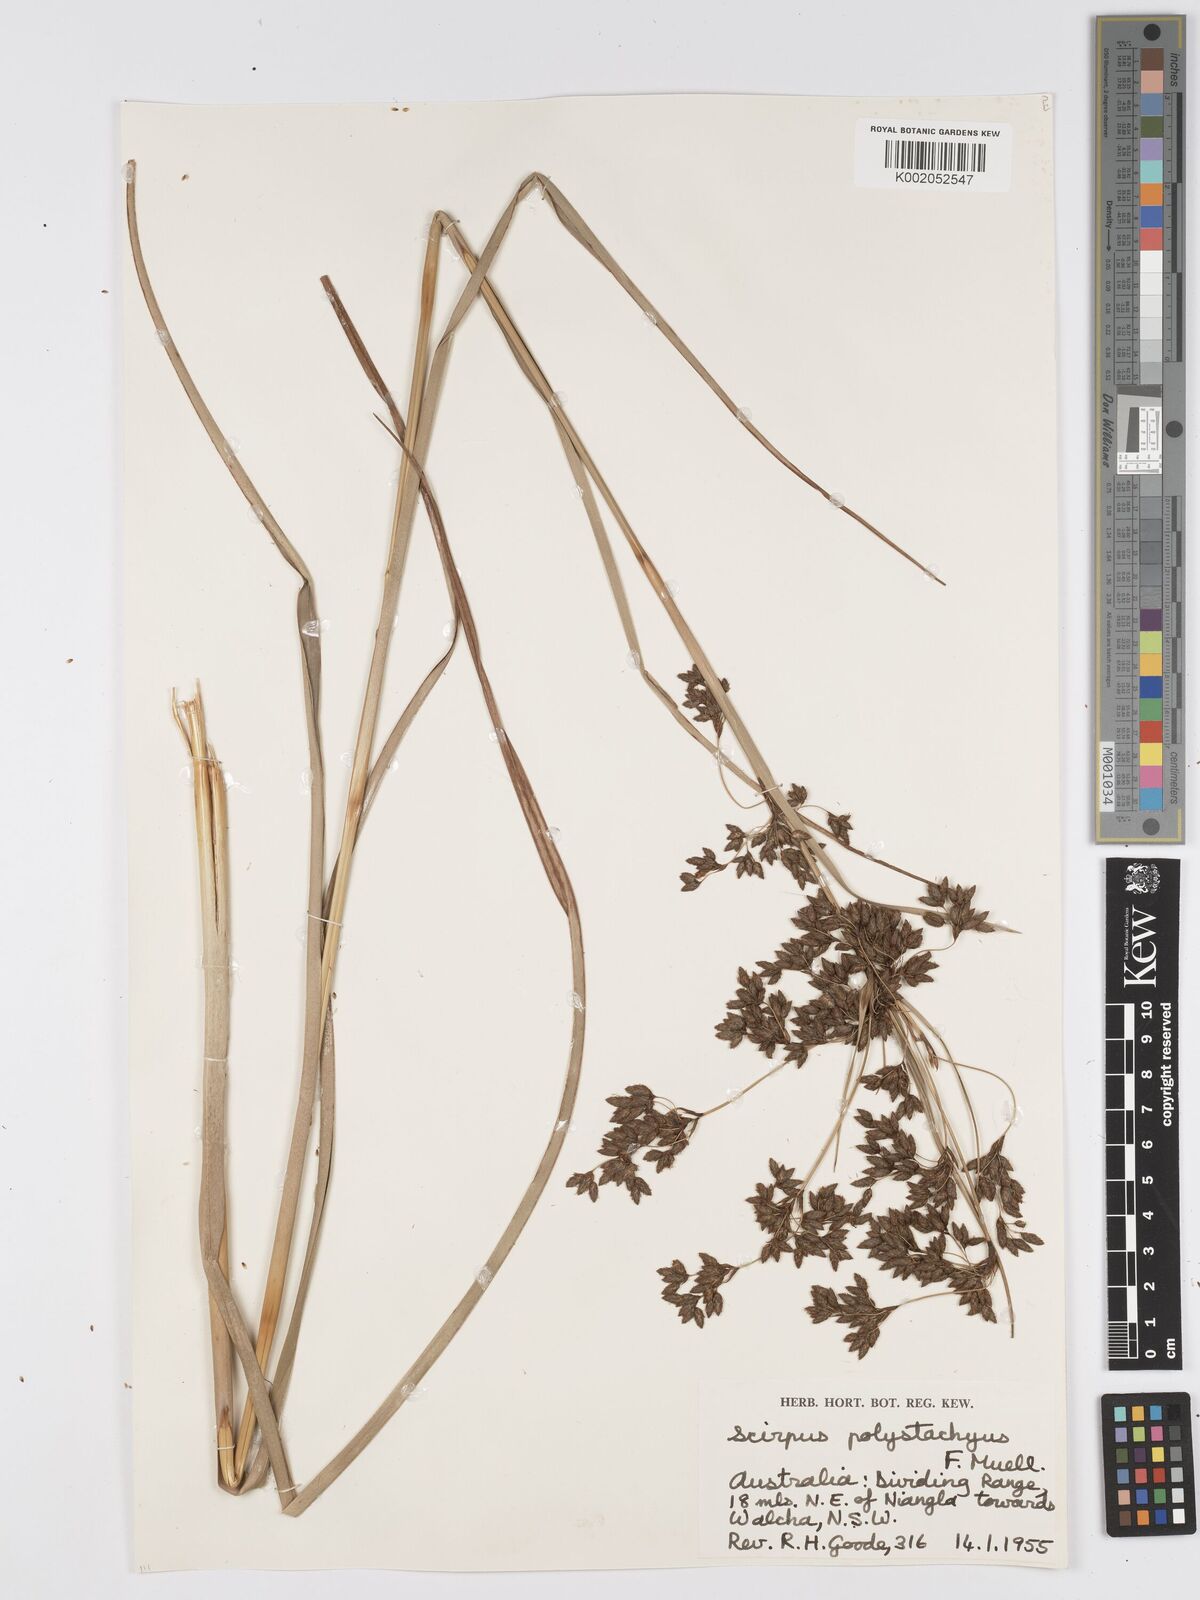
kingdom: Plantae
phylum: Tracheophyta
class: Liliopsida
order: Poales
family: Cyperaceae
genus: Scirpus
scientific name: Scirpus polystachyus
